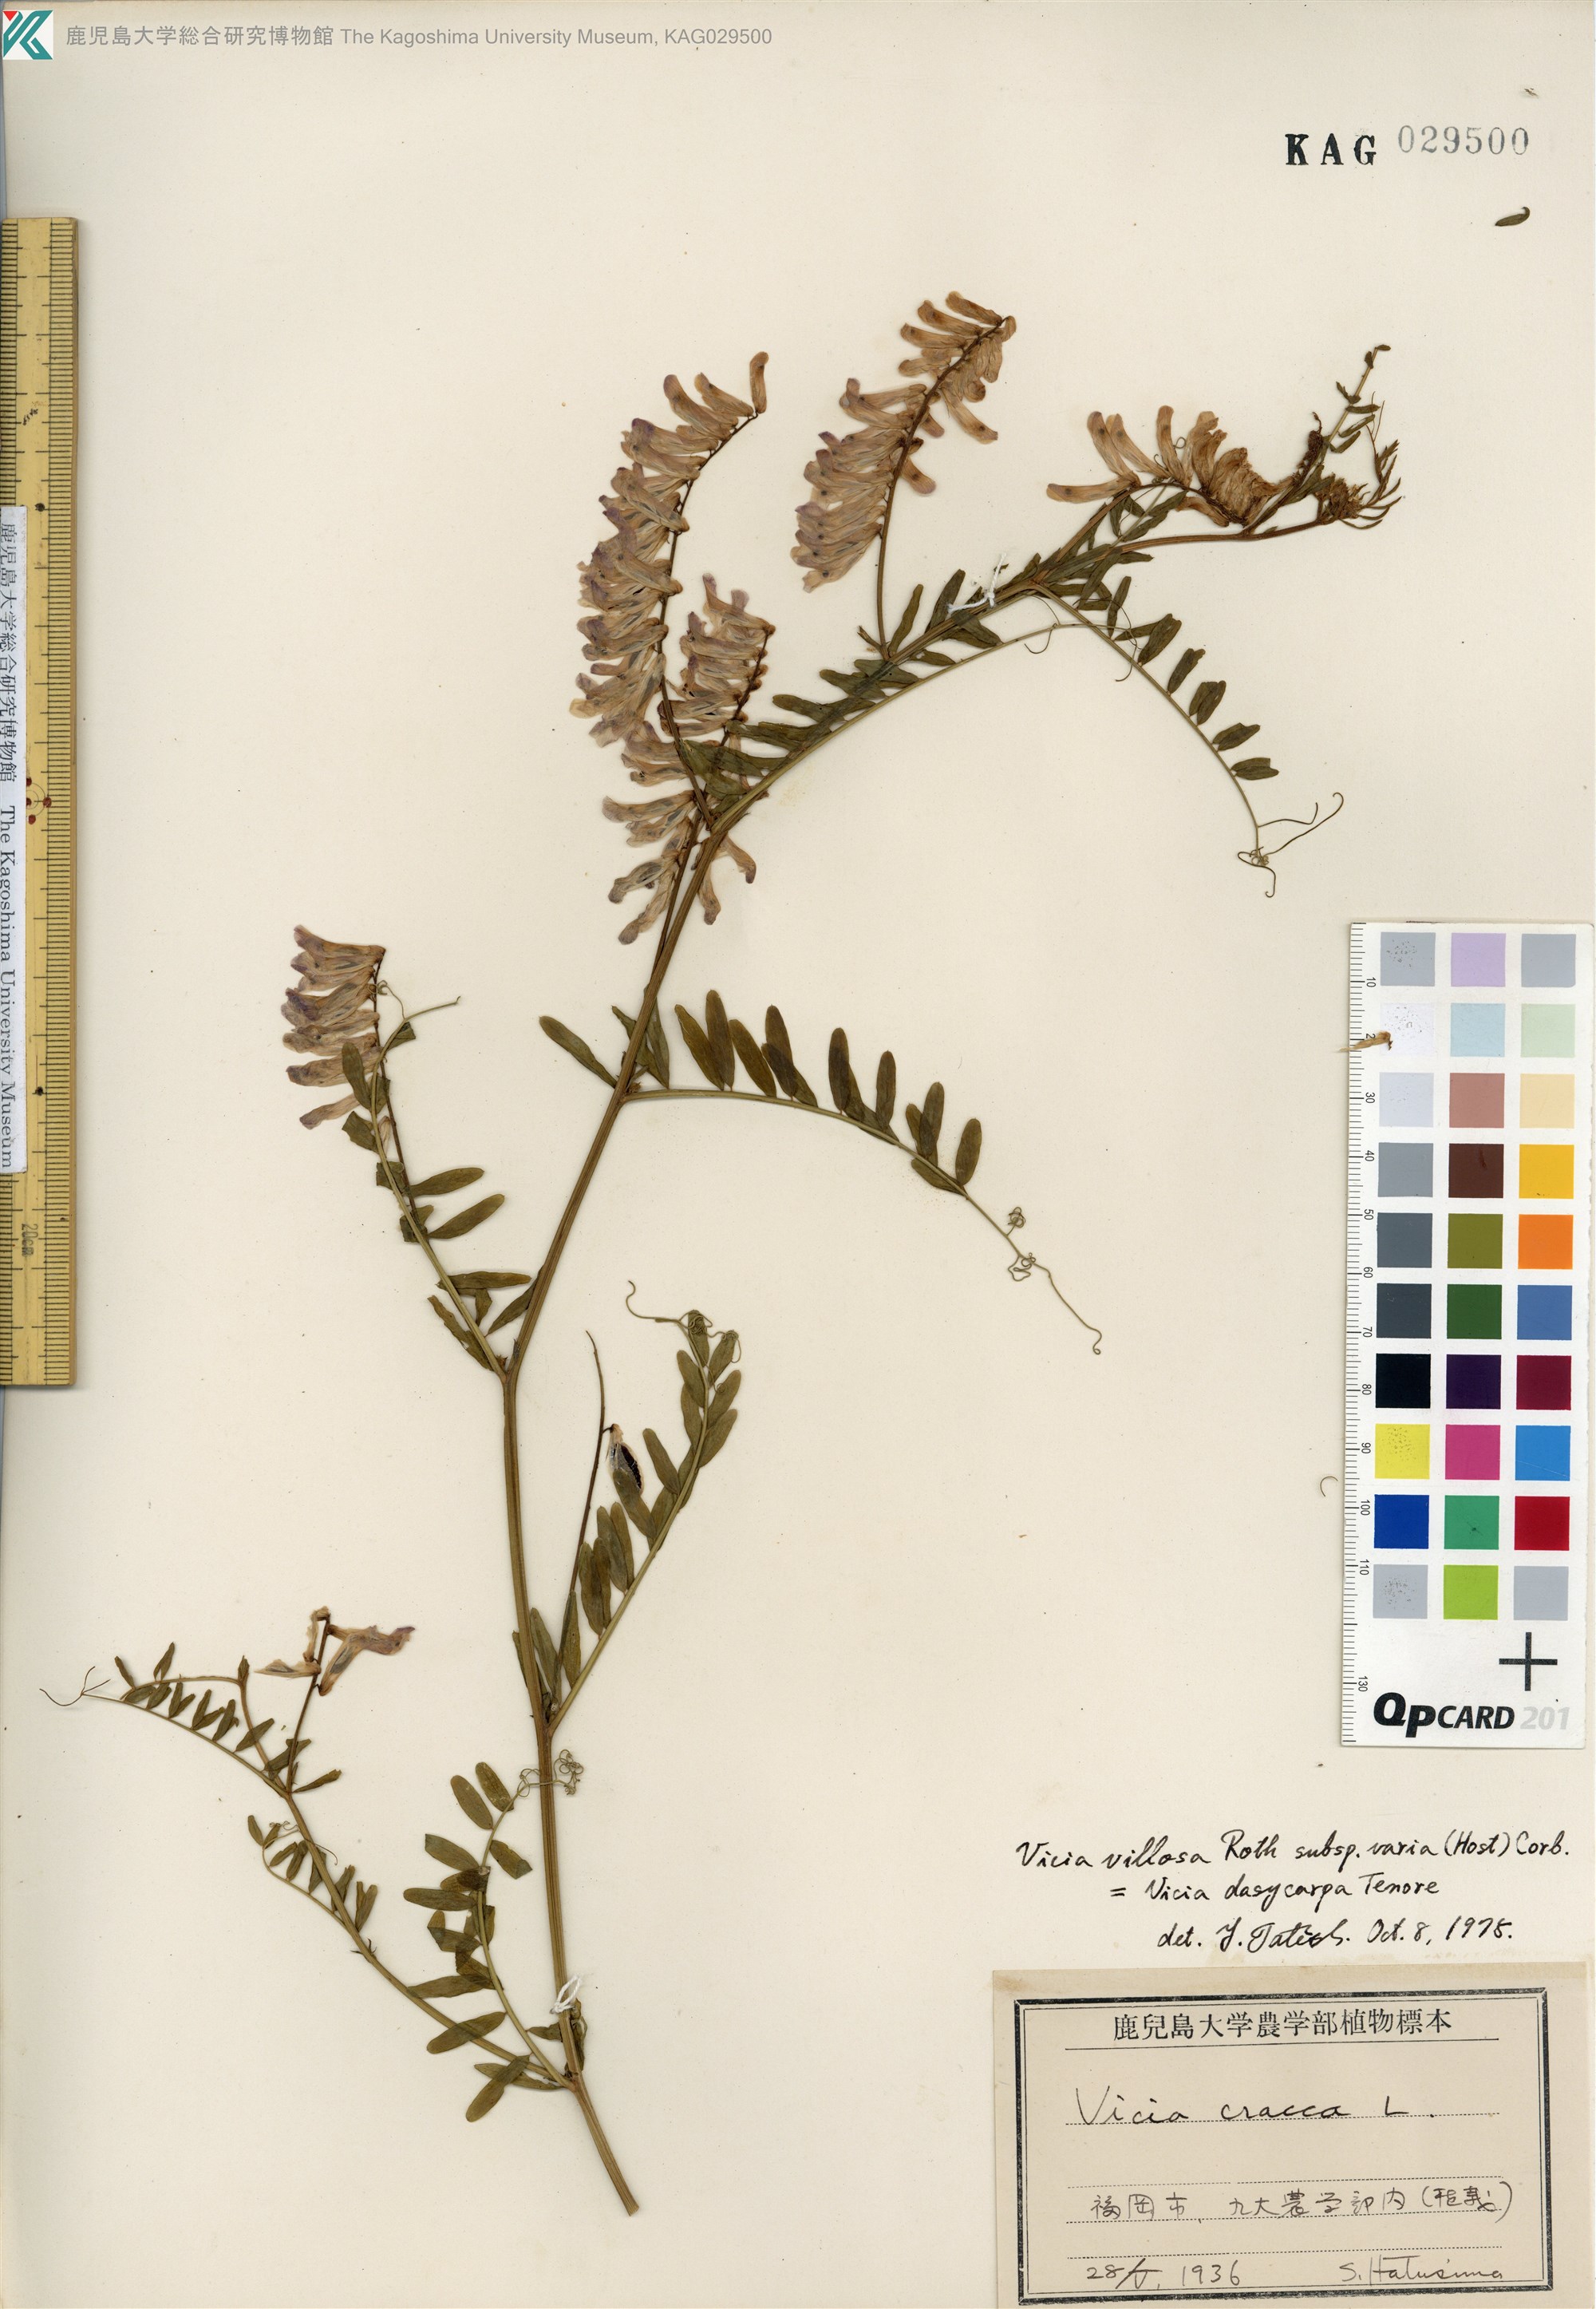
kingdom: Plantae
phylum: Tracheophyta
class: Magnoliopsida
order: Fabales
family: Fabaceae
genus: Vicia
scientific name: Vicia cracca
